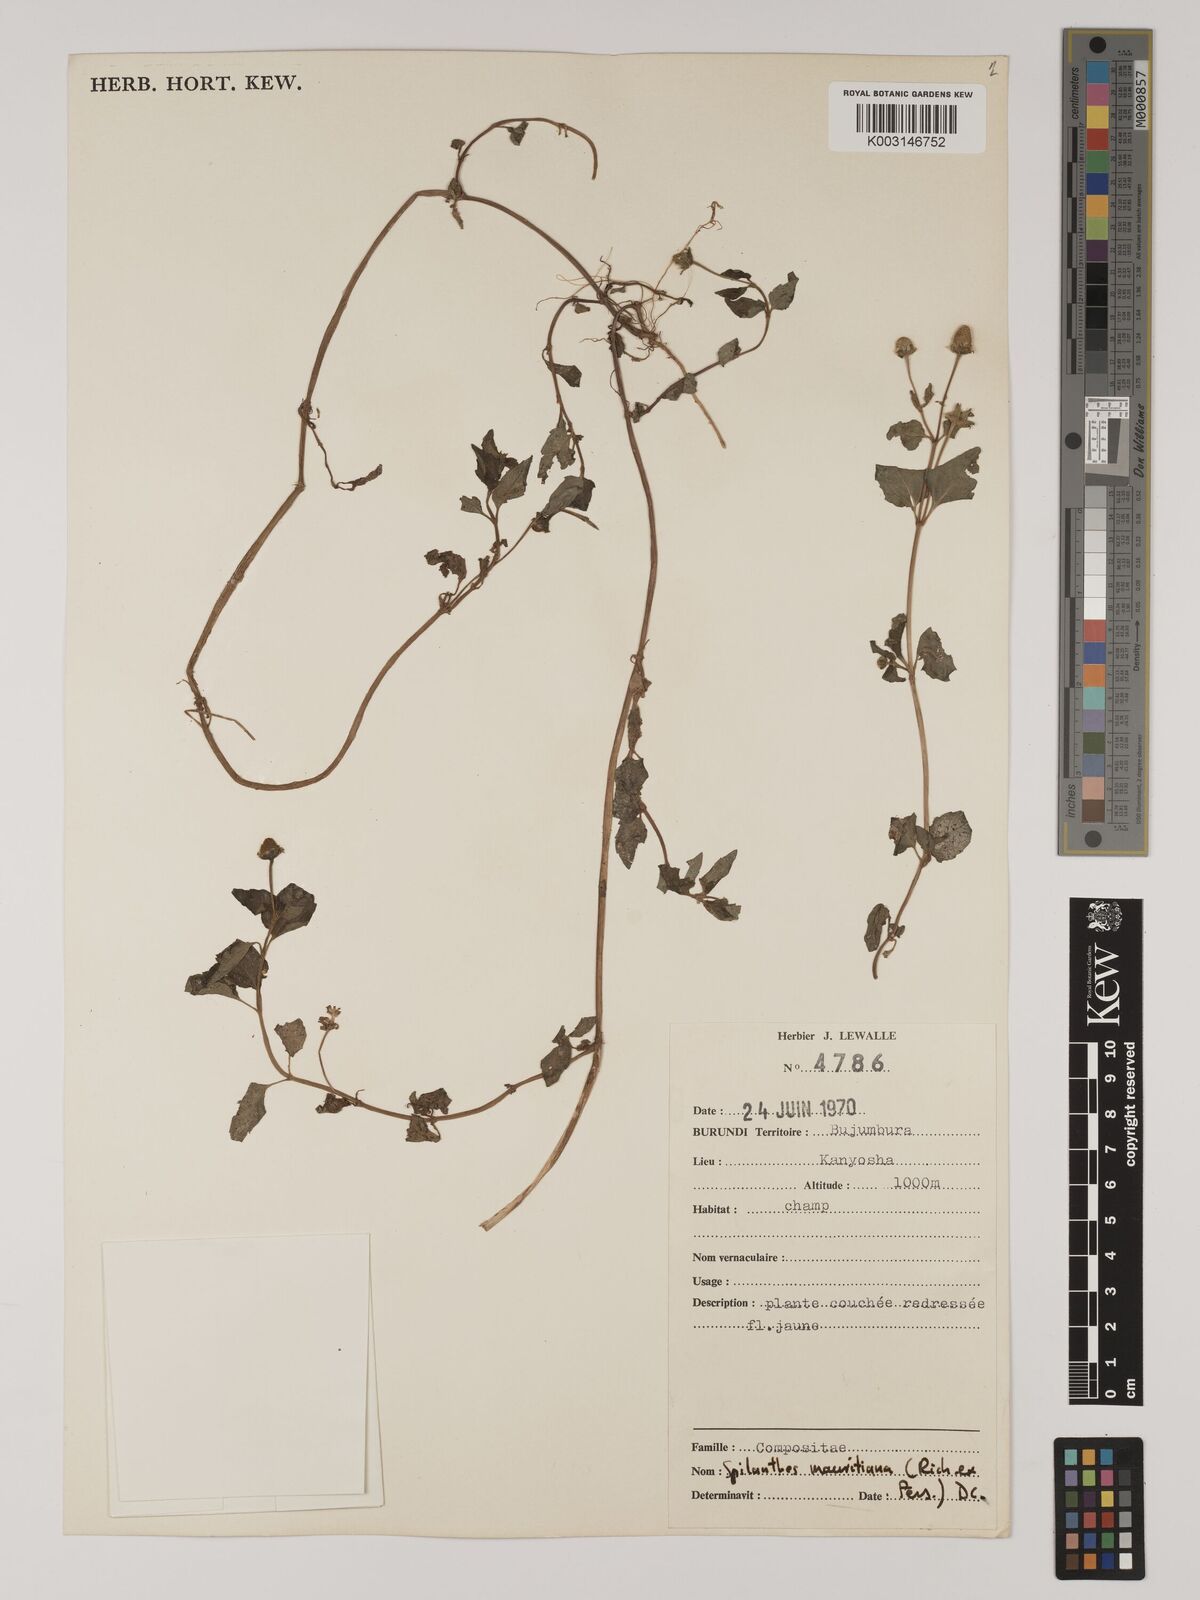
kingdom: Plantae
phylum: Tracheophyta
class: Magnoliopsida
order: Asterales
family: Asteraceae
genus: Acmella
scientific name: Acmella caulirhiza
